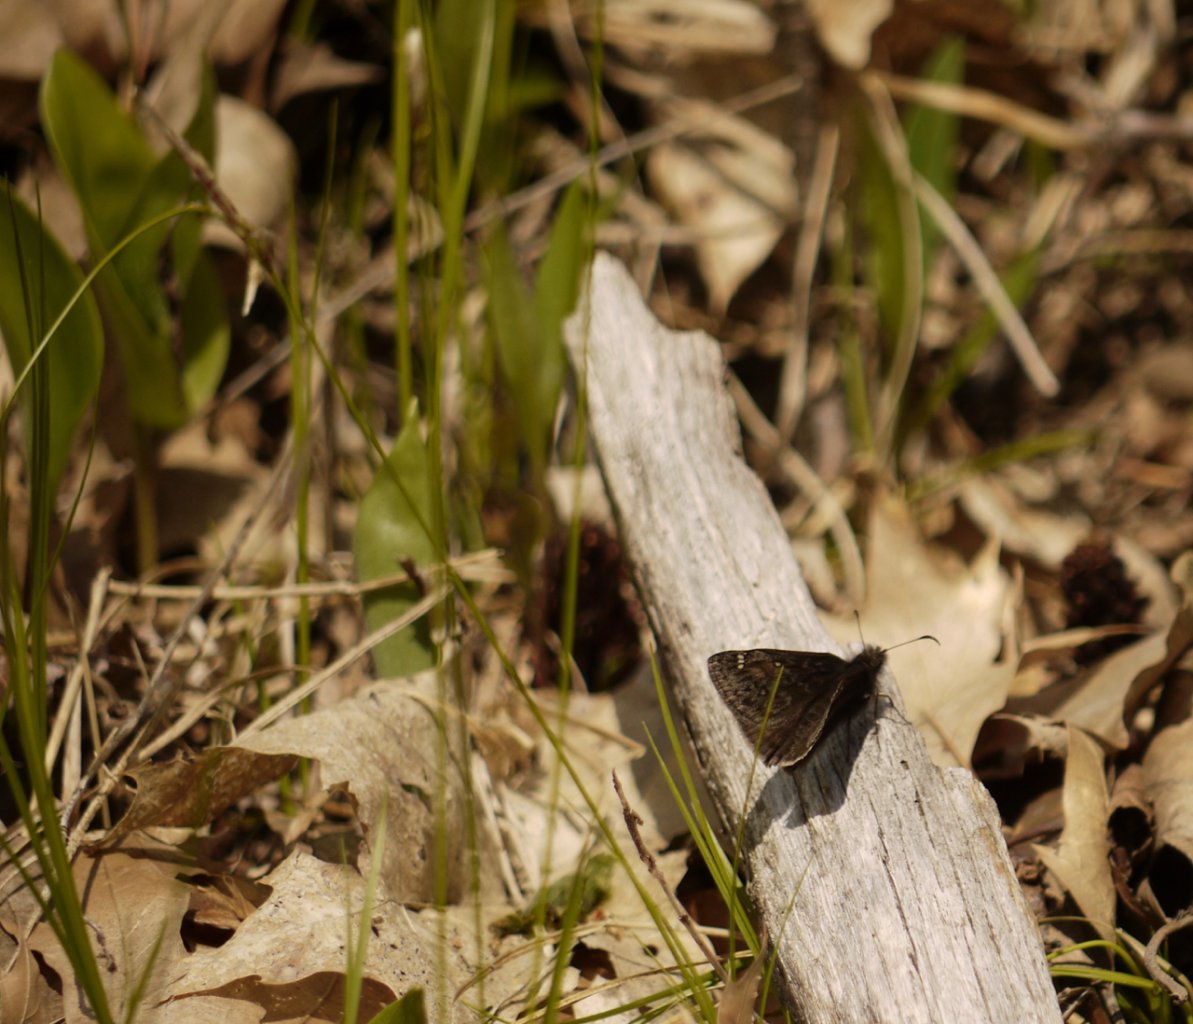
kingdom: Animalia
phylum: Arthropoda
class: Insecta
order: Lepidoptera
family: Hesperiidae
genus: Gesta
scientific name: Gesta
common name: Juvenal's Duskywing
